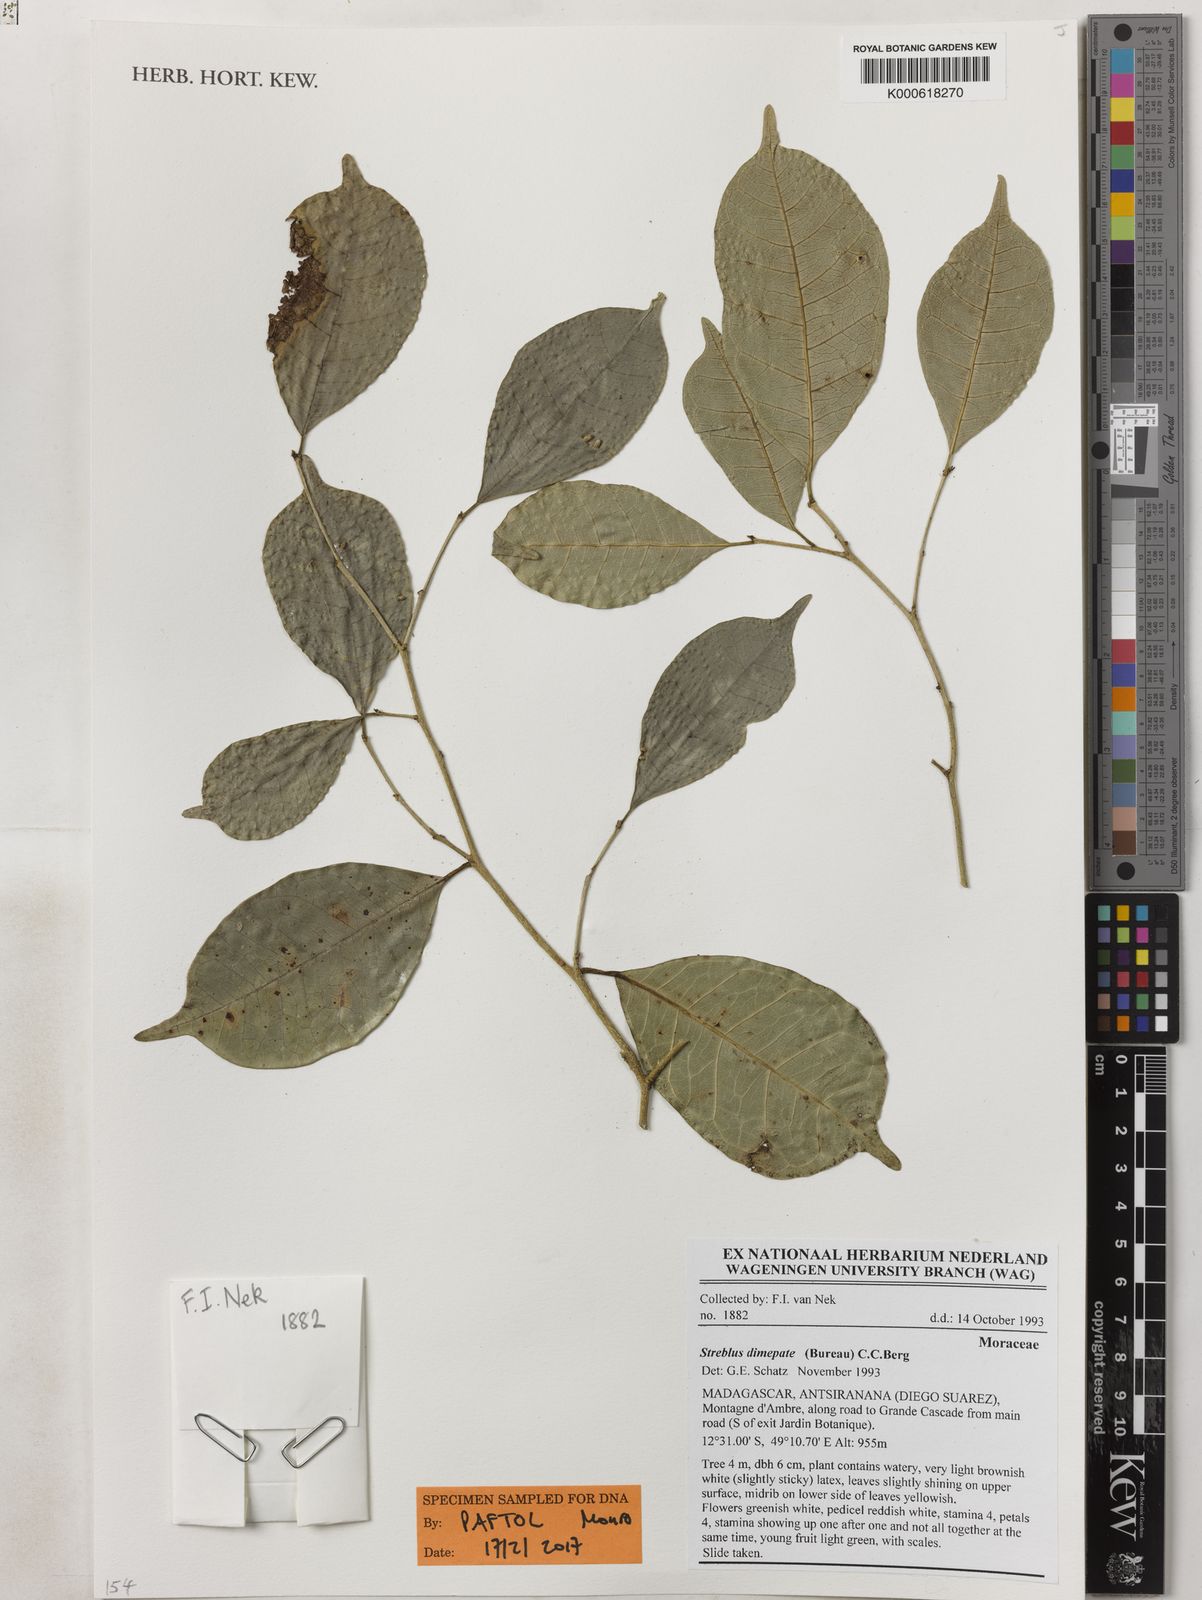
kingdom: Plantae
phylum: Tracheophyta
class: Magnoliopsida
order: Rosales
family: Moraceae
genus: Ampalis
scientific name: Ampalis dimepate
